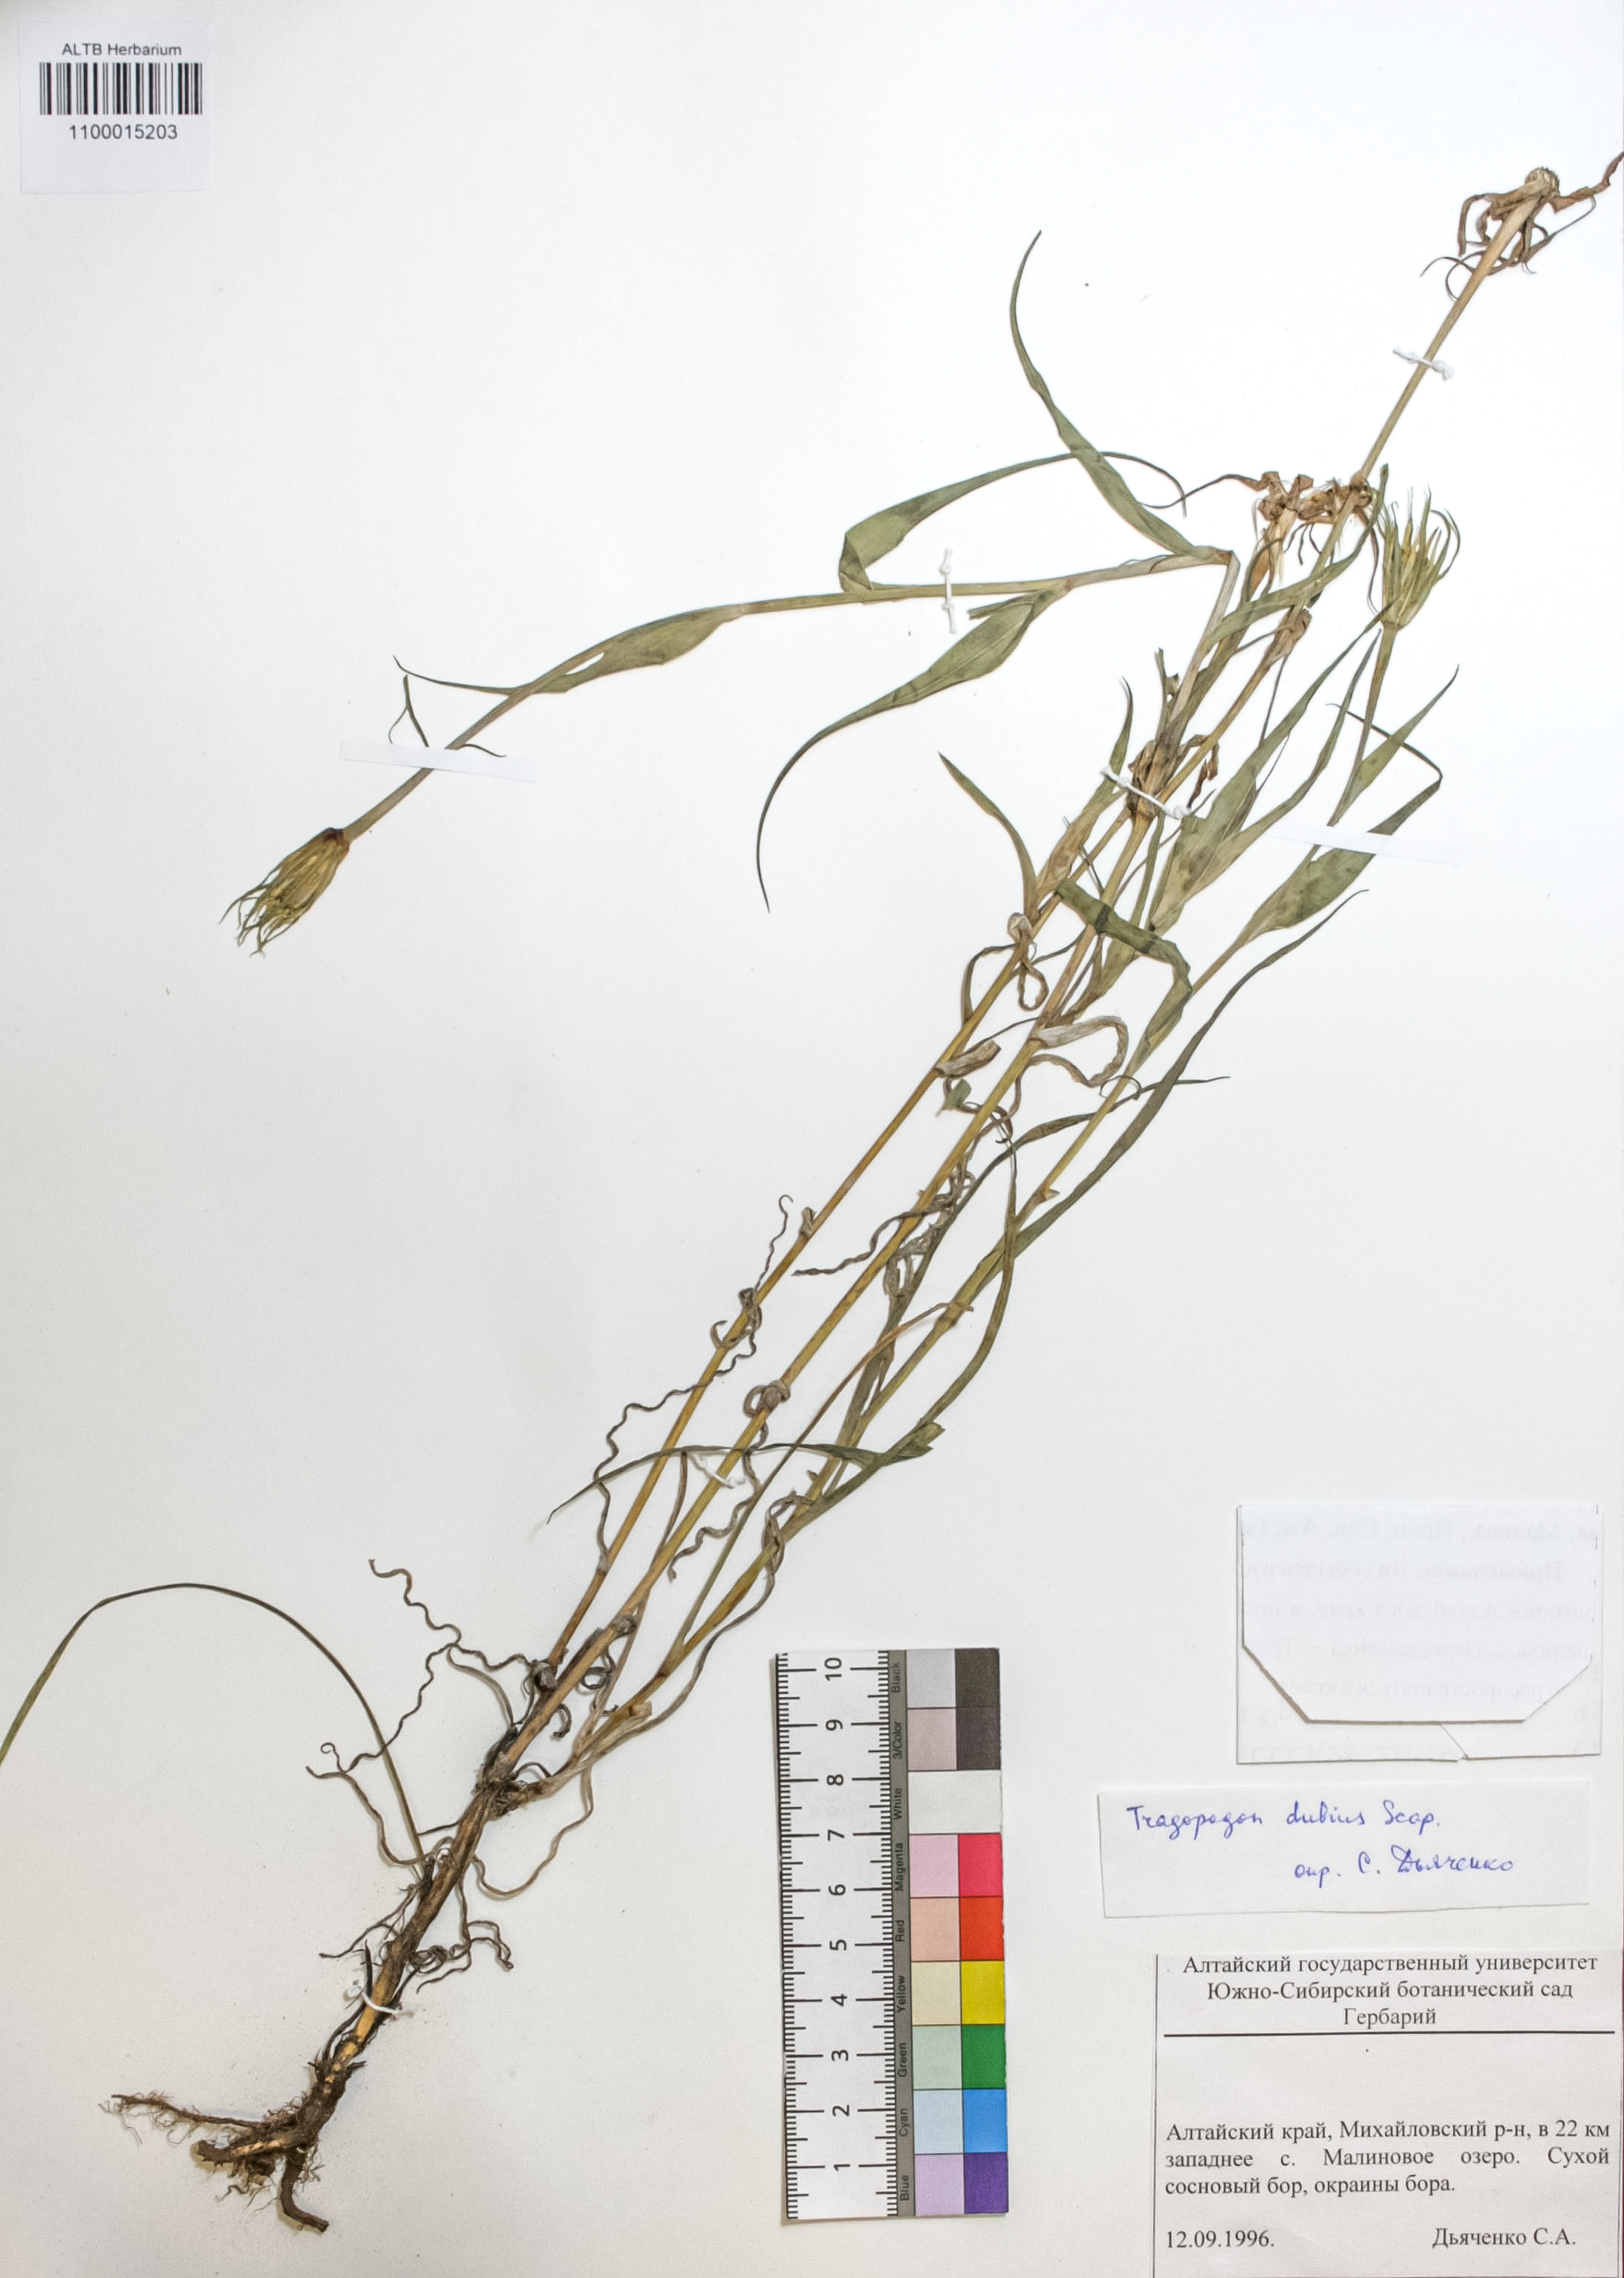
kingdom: Plantae
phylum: Tracheophyta
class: Magnoliopsida
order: Asterales
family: Asteraceae
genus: Tragopogon
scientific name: Tragopogon dubius
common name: Yellow salsify
